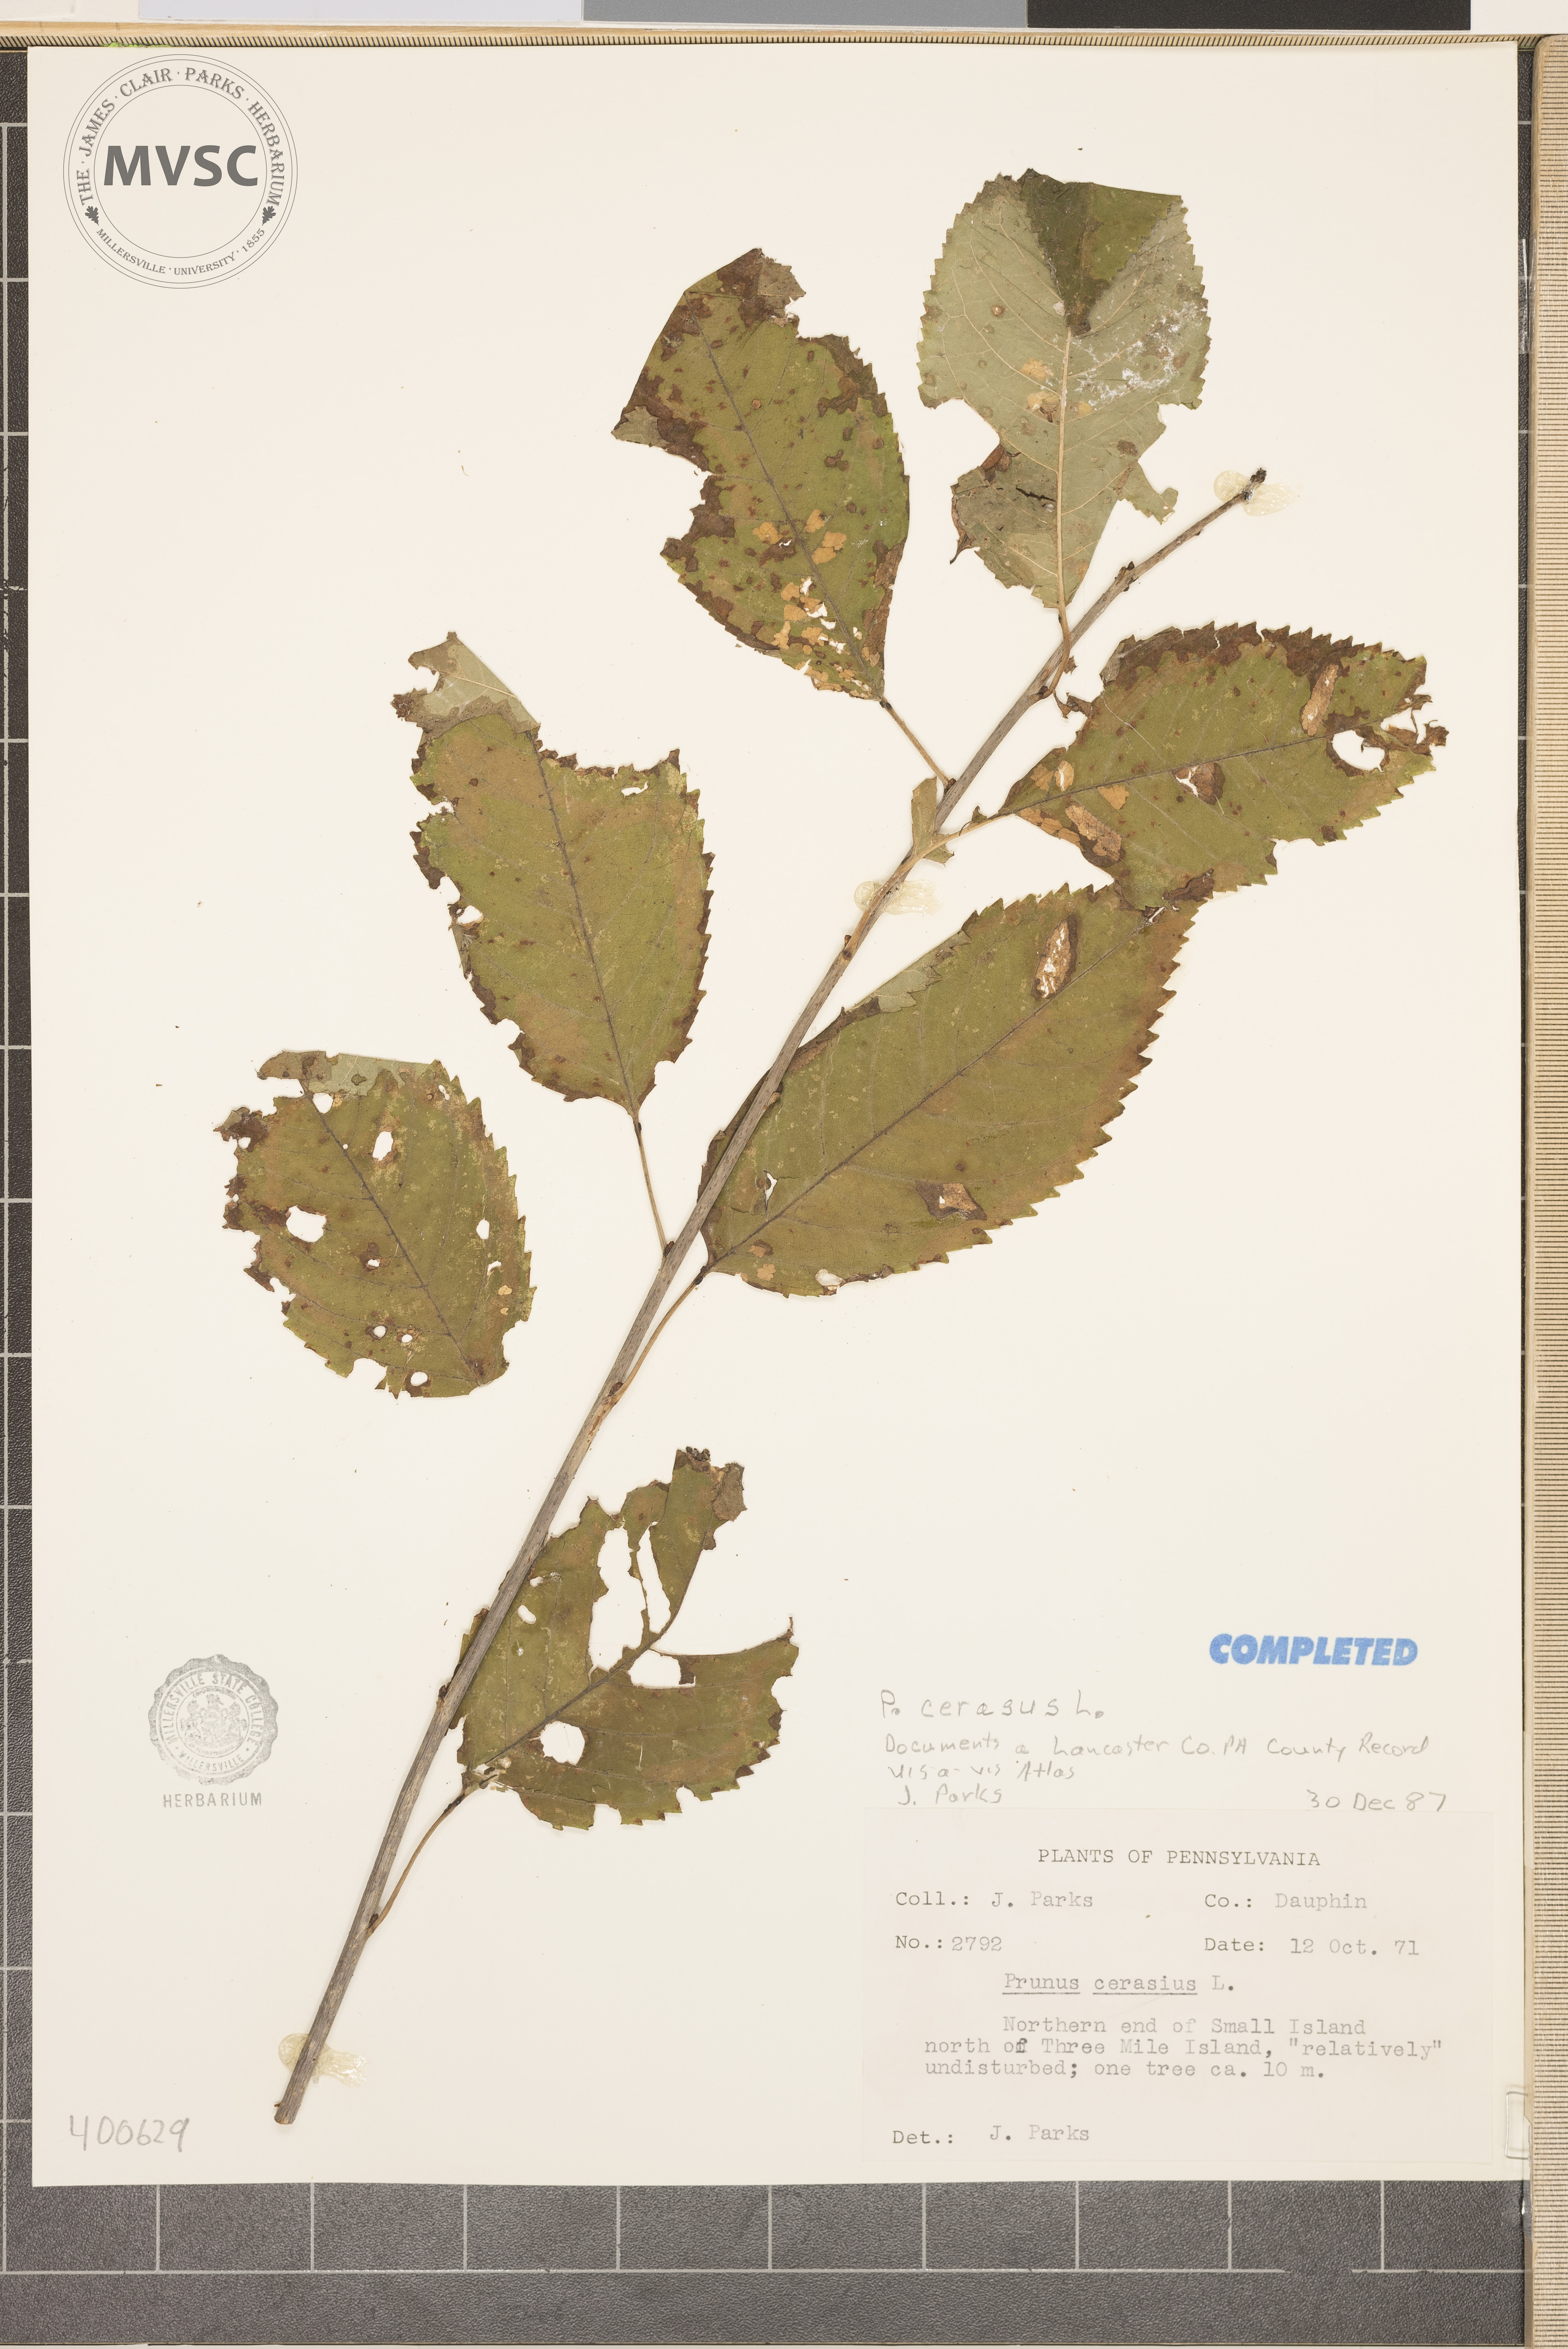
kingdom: Plantae
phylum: Tracheophyta
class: Magnoliopsida
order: Rosales
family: Rosaceae
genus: Prunus
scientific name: Prunus cerasus
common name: Morello cherry
